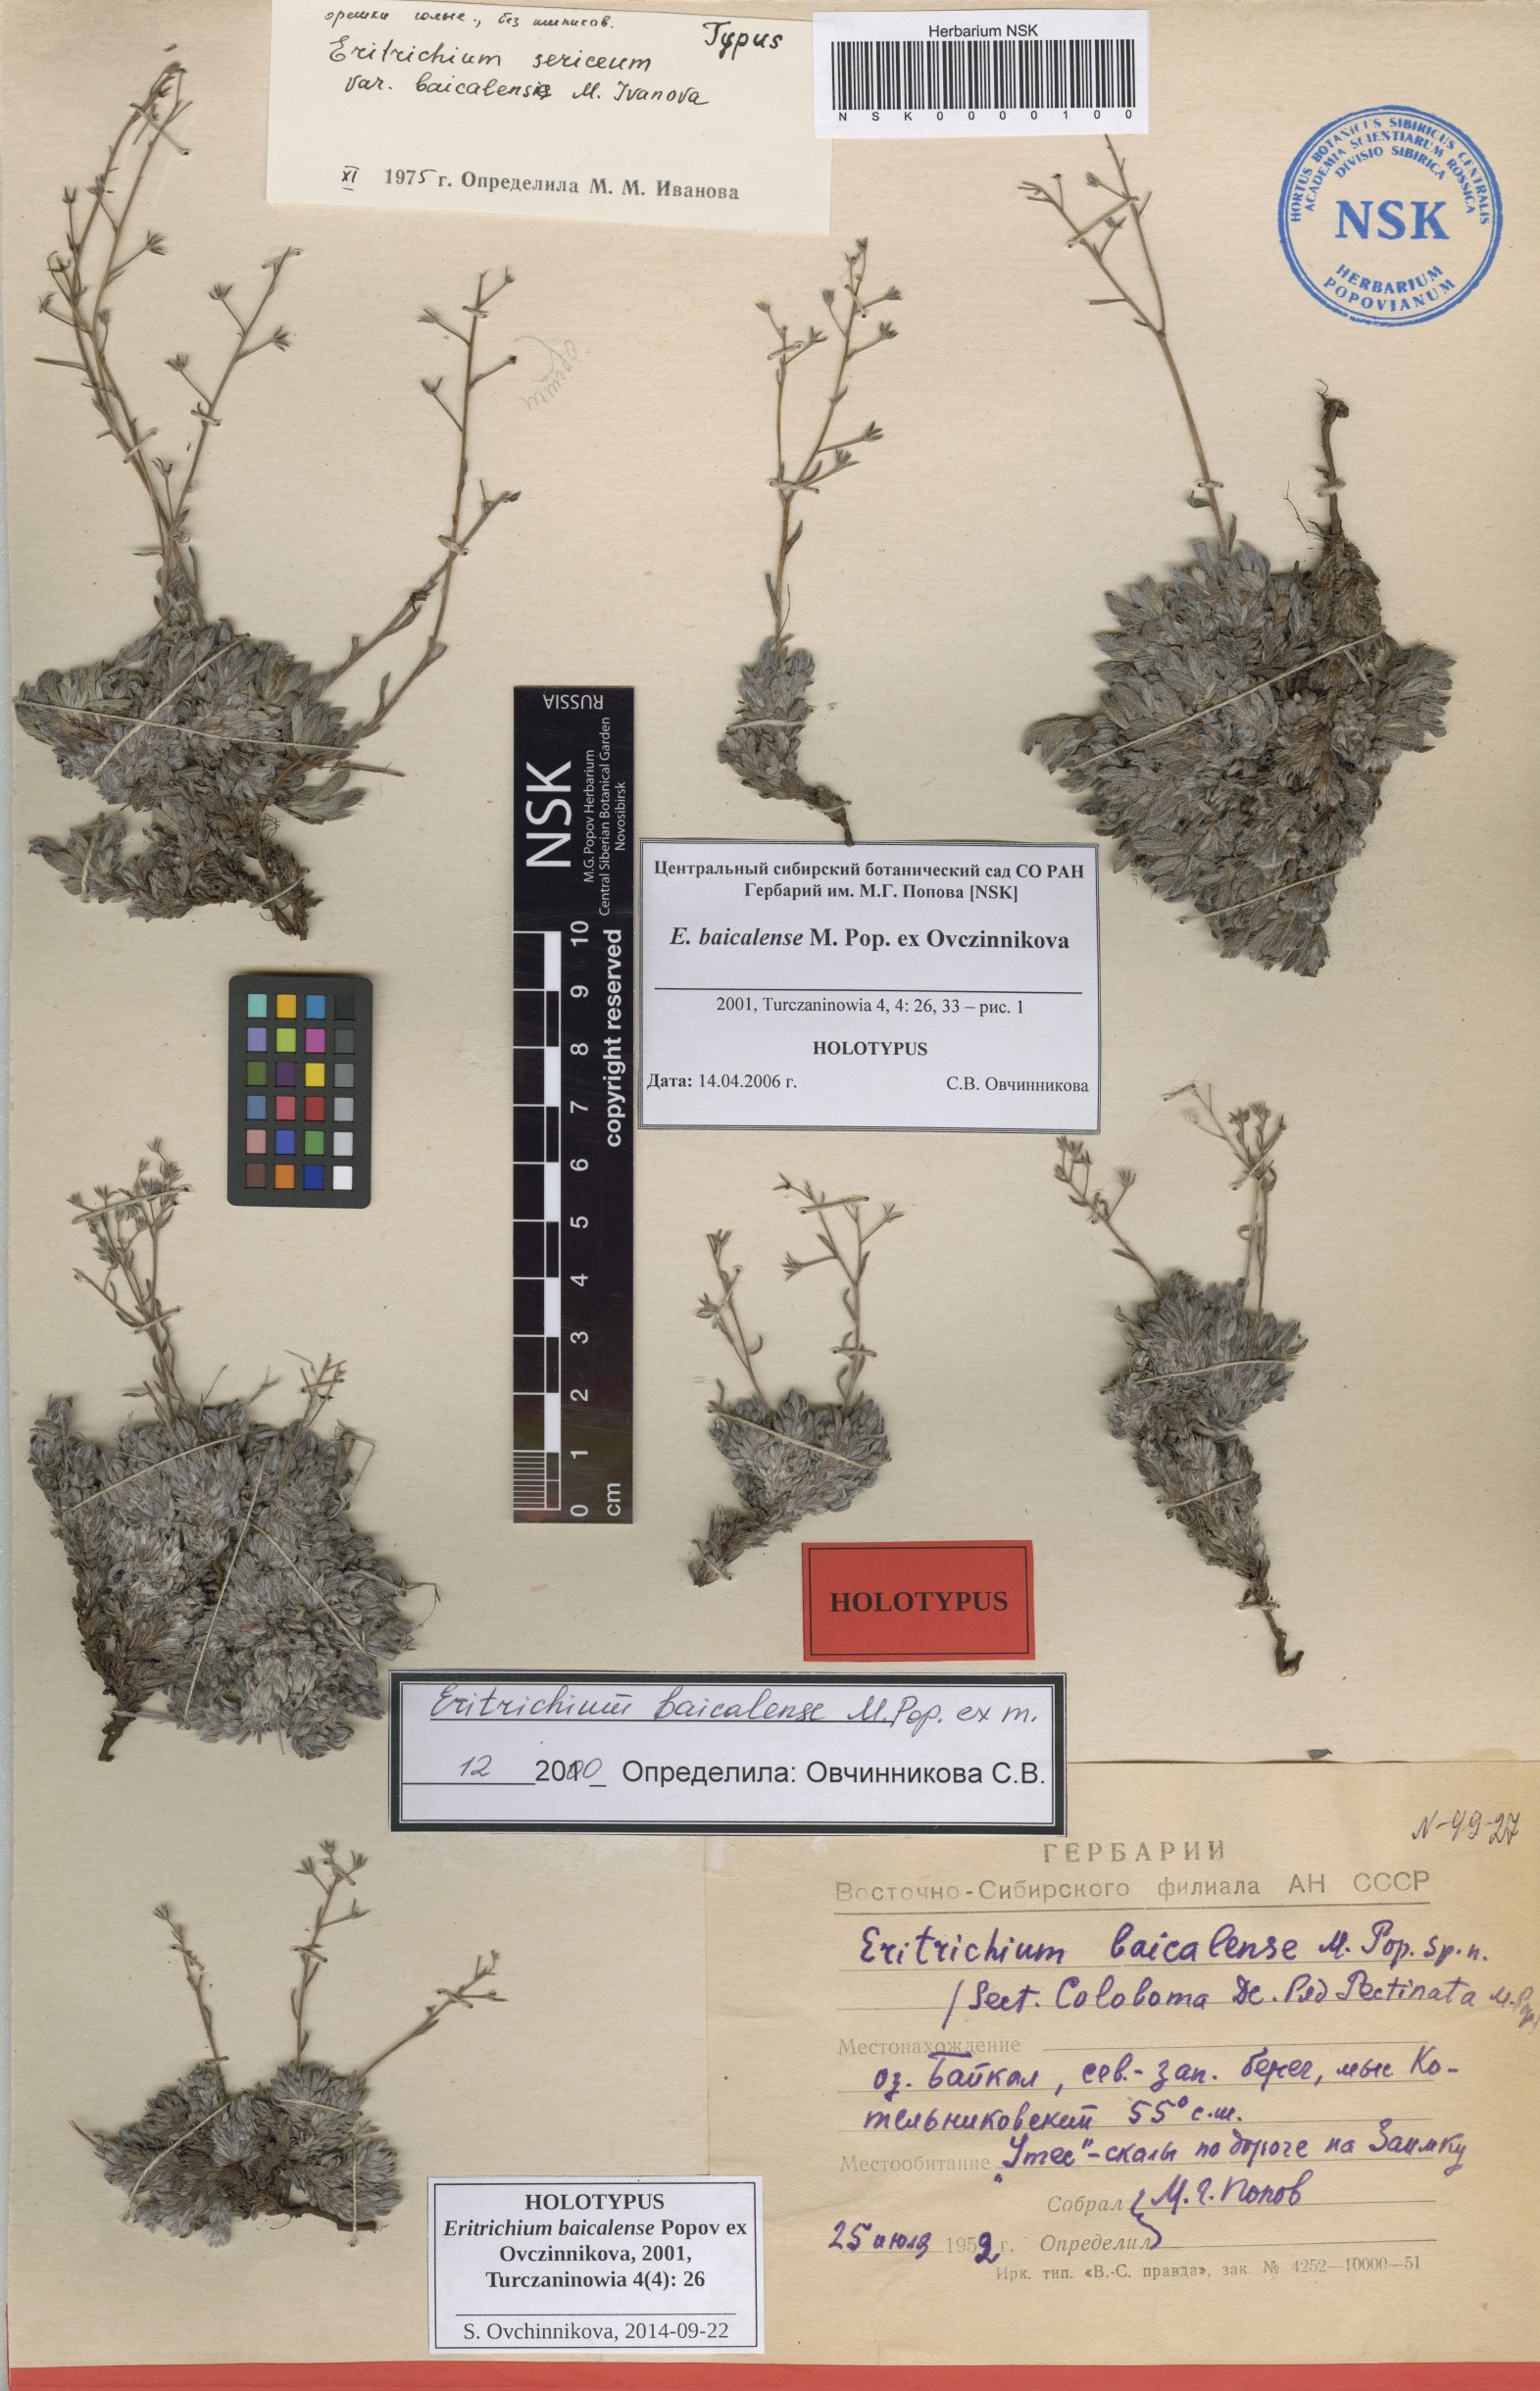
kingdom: Plantae
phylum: Tracheophyta
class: Magnoliopsida
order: Boraginales
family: Boraginaceae
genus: Eritrichium
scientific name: Eritrichium baicalense
